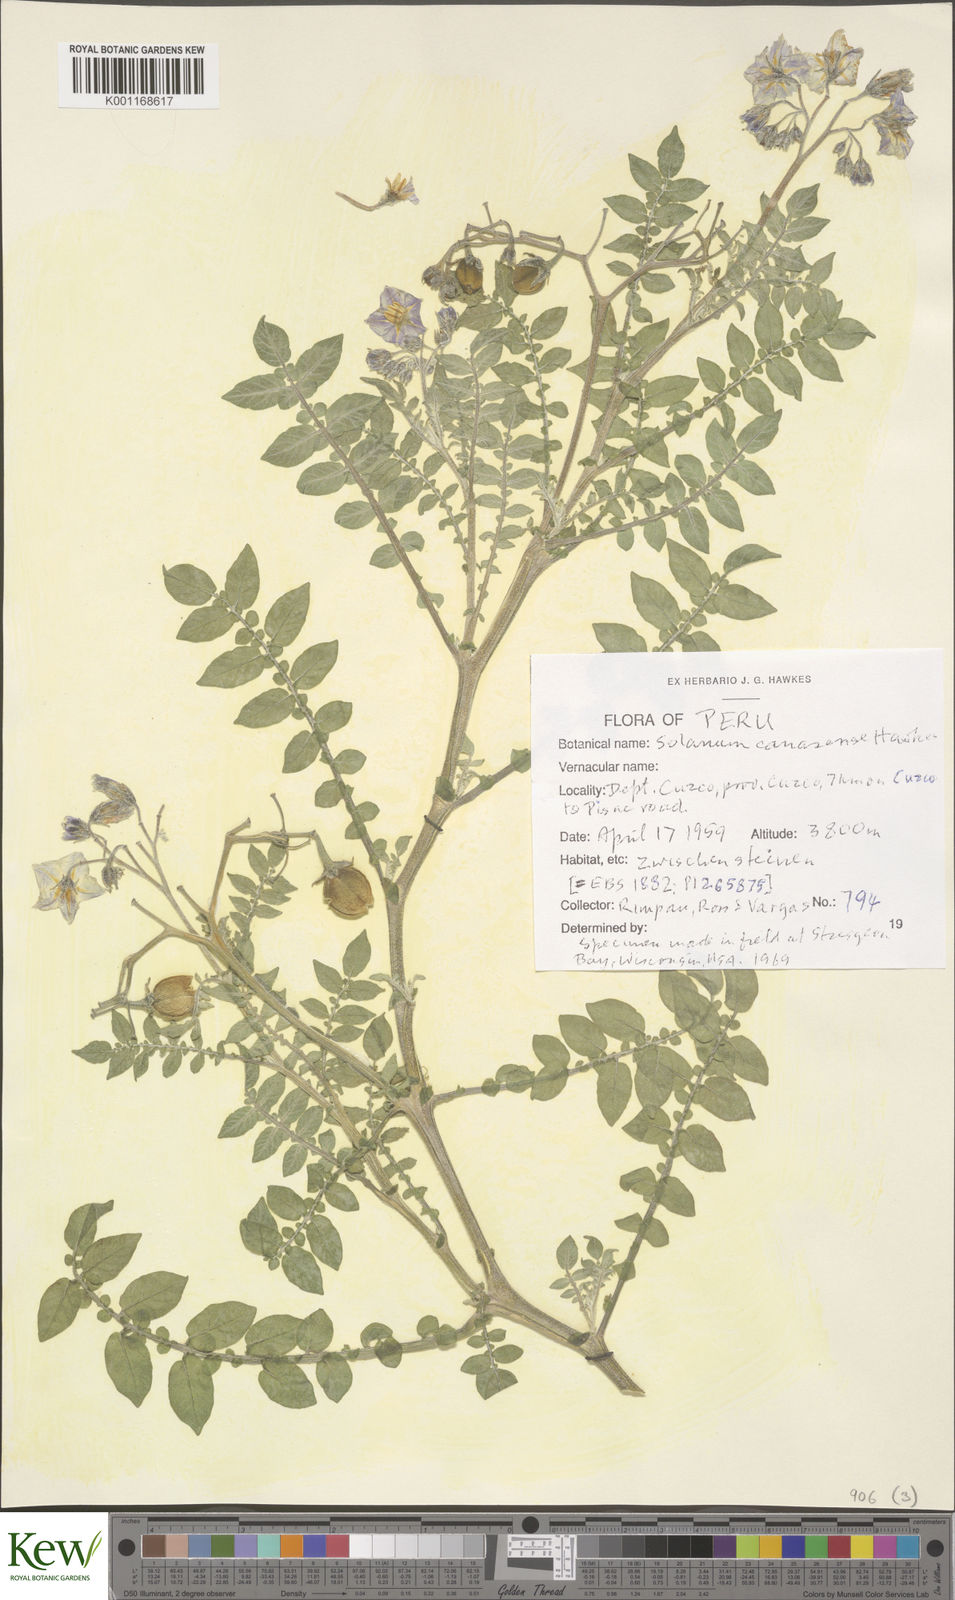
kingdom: Plantae
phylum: Tracheophyta
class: Magnoliopsida
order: Solanales
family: Solanaceae
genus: Solanum
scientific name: Solanum candolleanum
